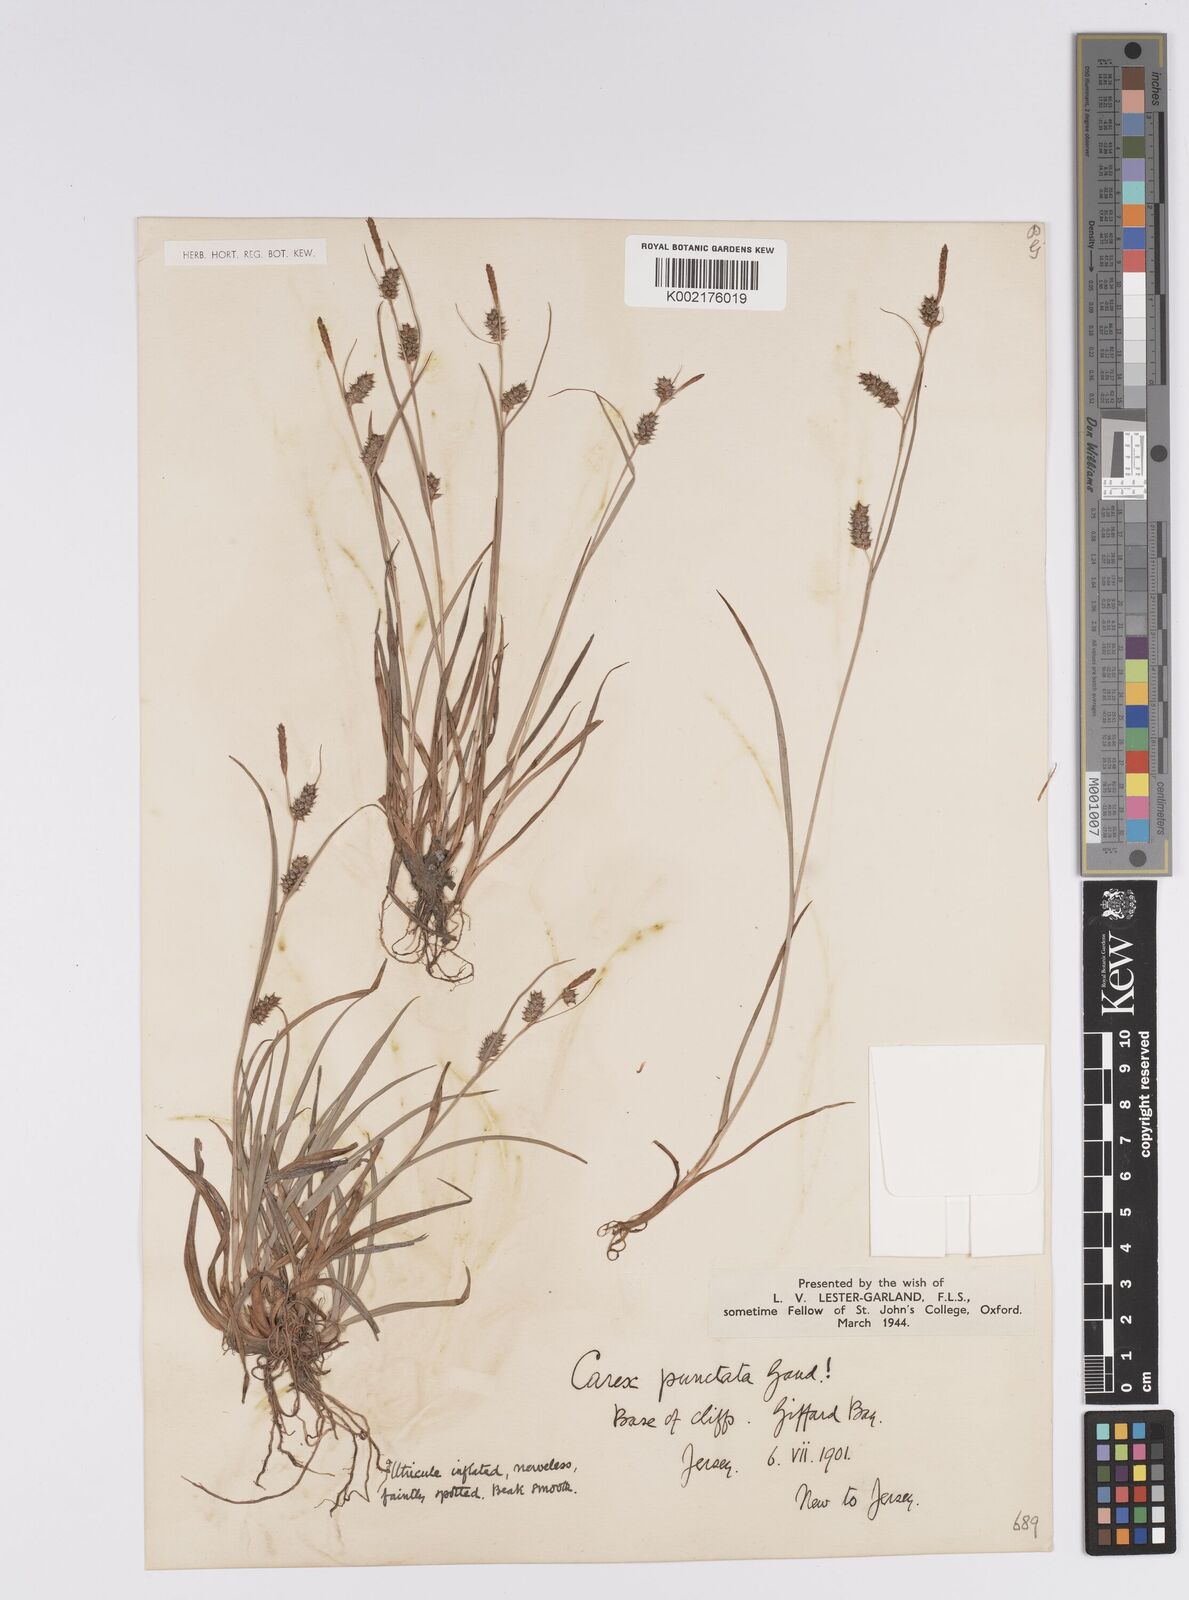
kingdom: Plantae
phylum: Tracheophyta
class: Liliopsida
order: Poales
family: Cyperaceae
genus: Carex
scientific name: Carex punctata
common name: Dotted sedge
